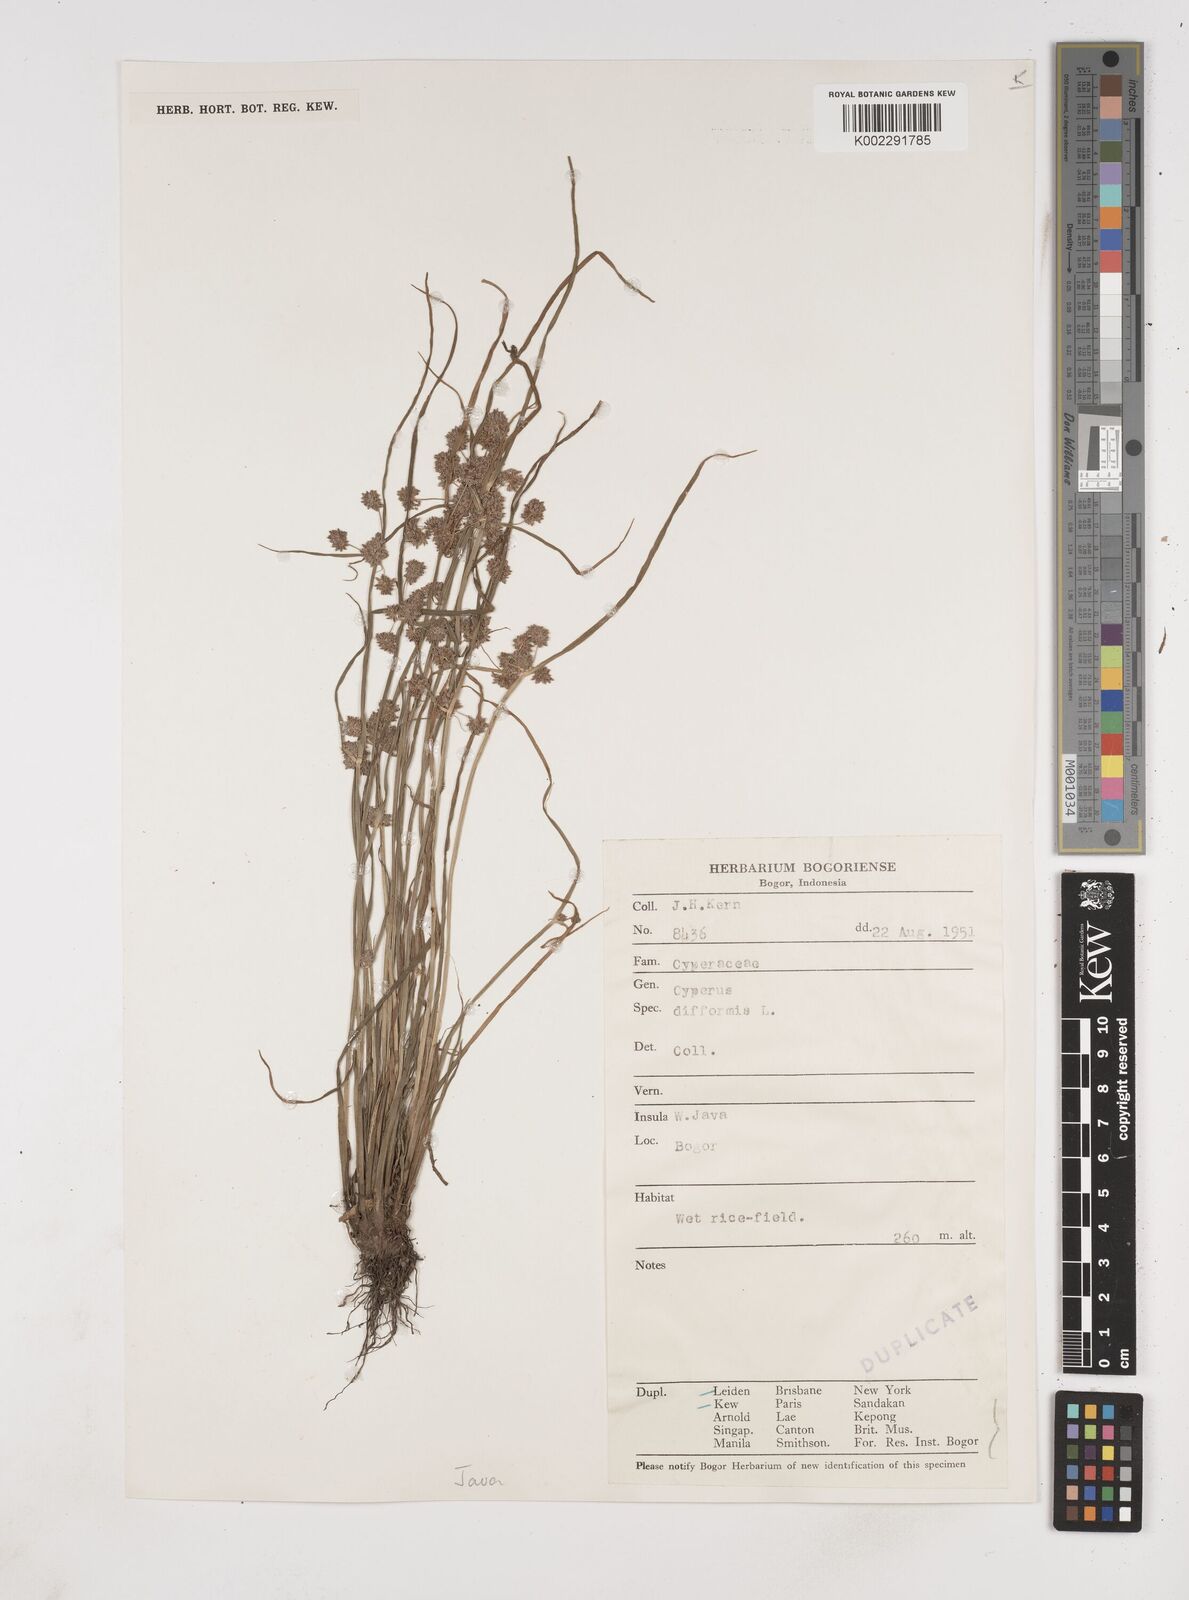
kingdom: Plantae
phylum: Tracheophyta
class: Liliopsida
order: Poales
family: Cyperaceae
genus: Cyperus
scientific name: Cyperus difformis
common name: Variable flatsedge
